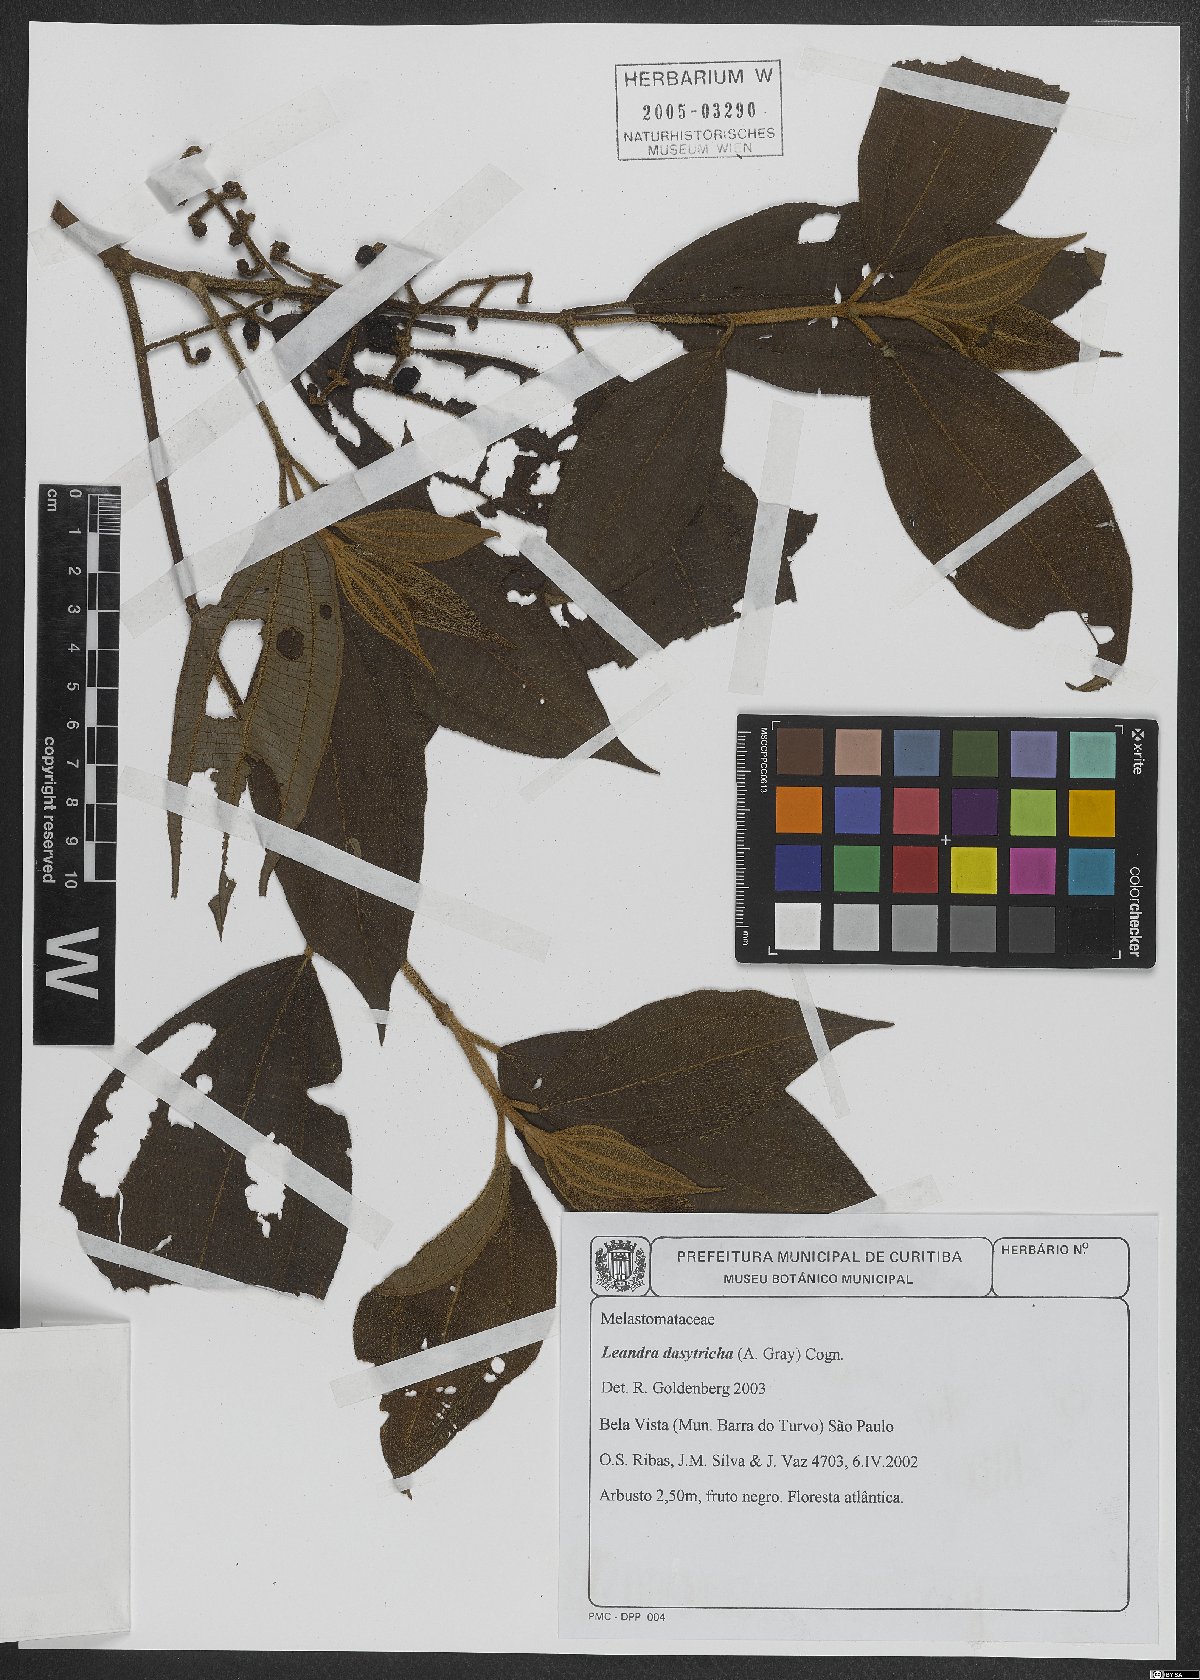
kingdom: Plantae
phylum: Tracheophyta
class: Magnoliopsida
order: Myrtales
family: Melastomataceae
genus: Miconia
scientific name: Miconia dasytricha
